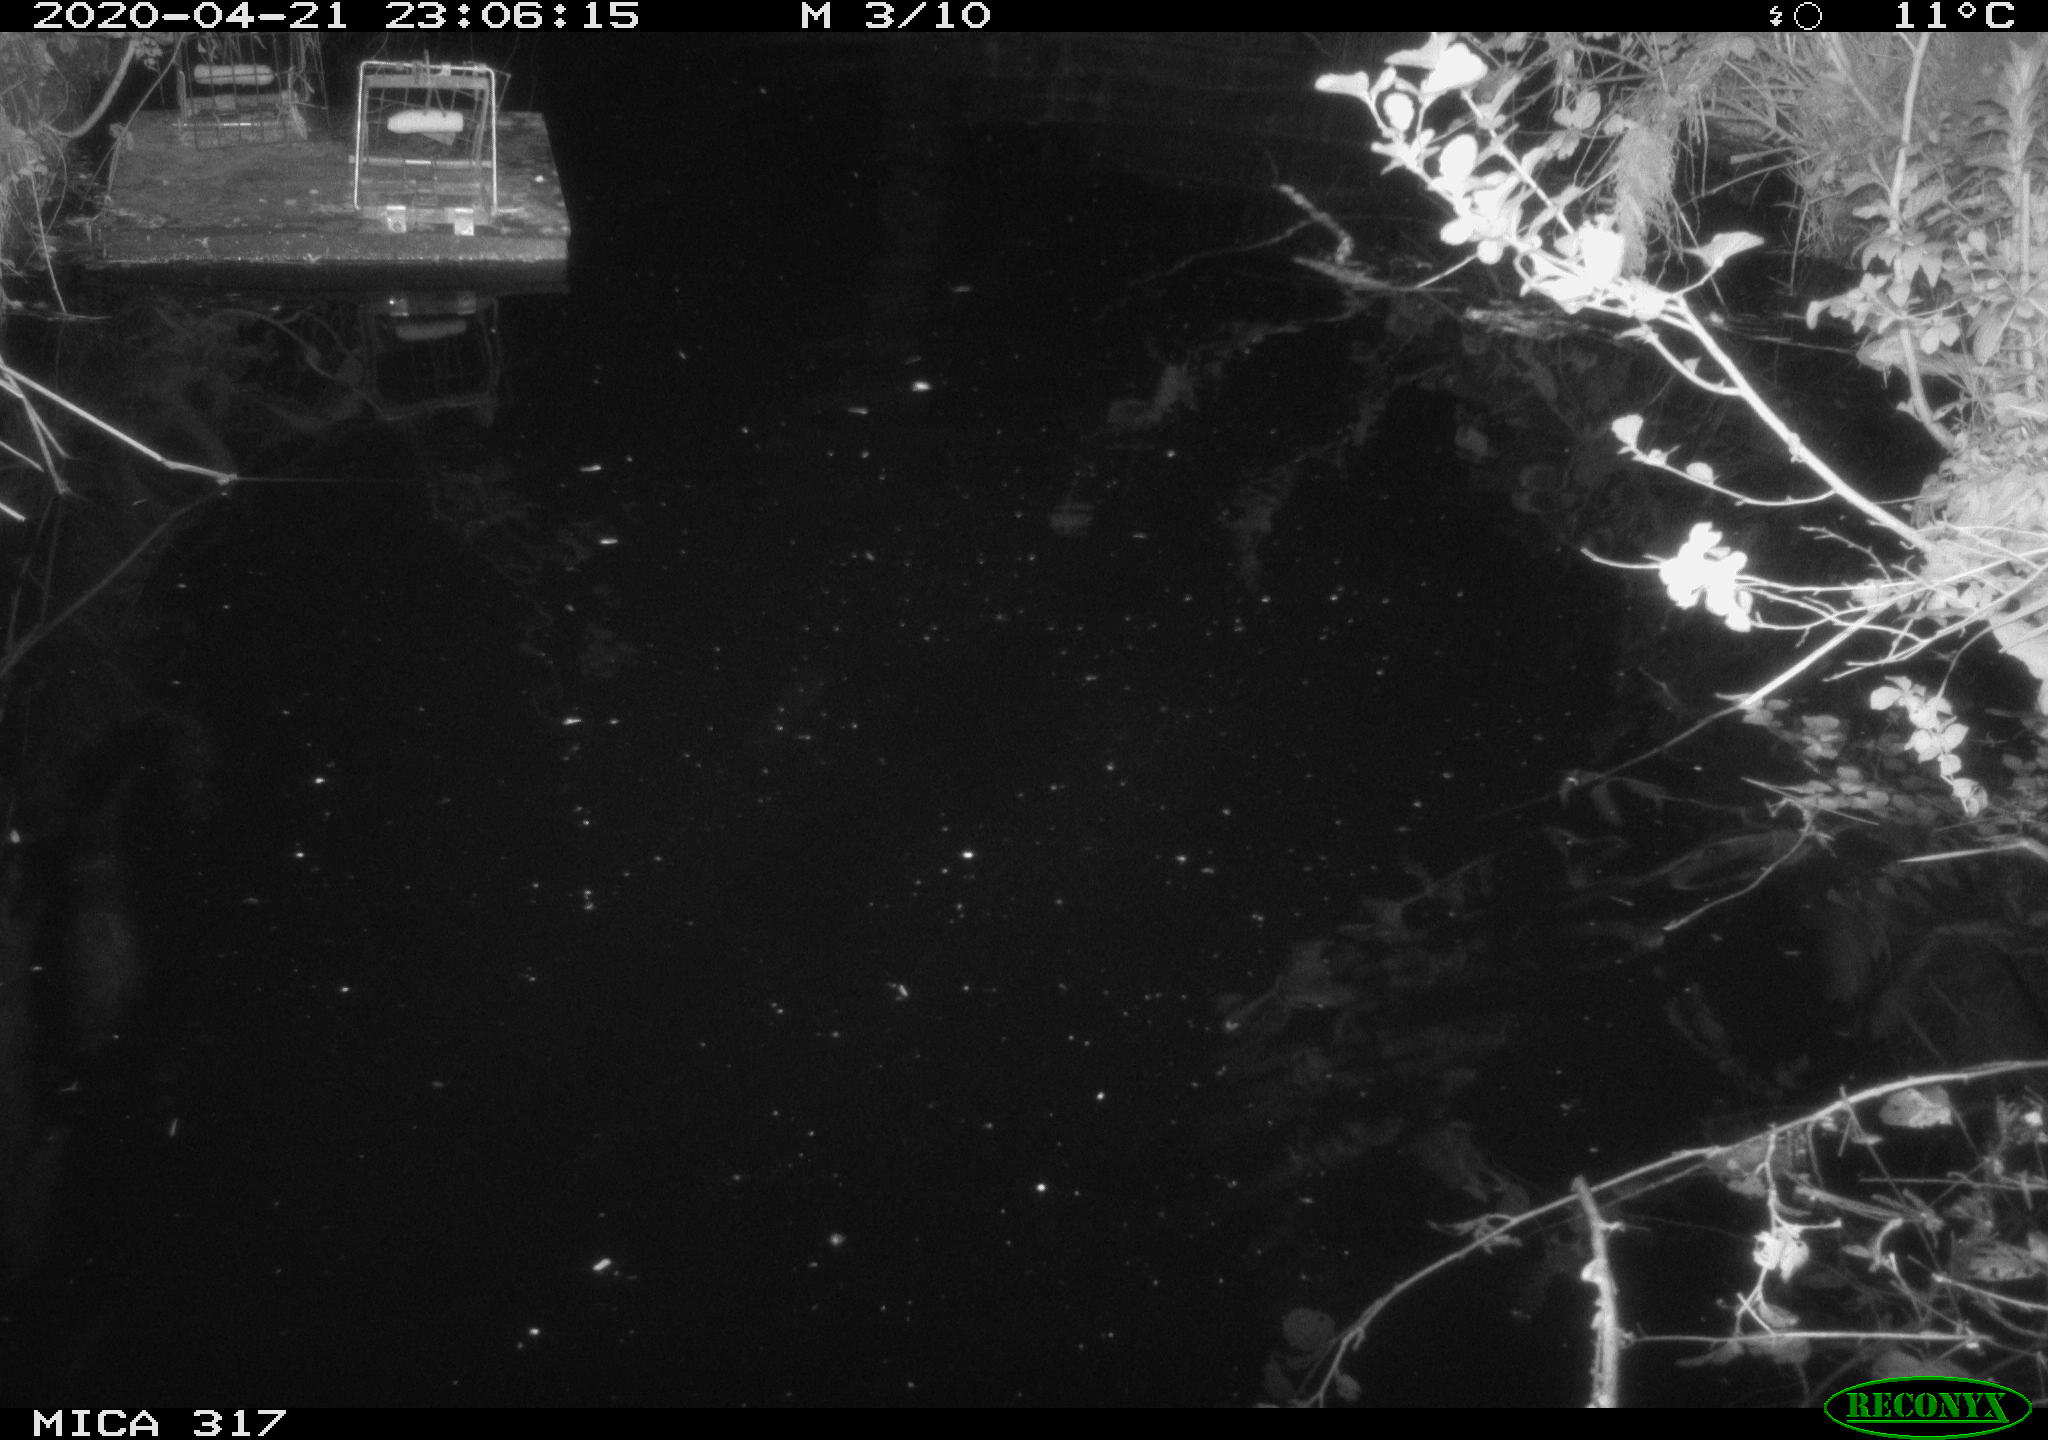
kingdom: Animalia
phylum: Chordata
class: Aves
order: Anseriformes
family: Anatidae
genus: Anas
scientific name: Anas platyrhynchos
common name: Mallard
